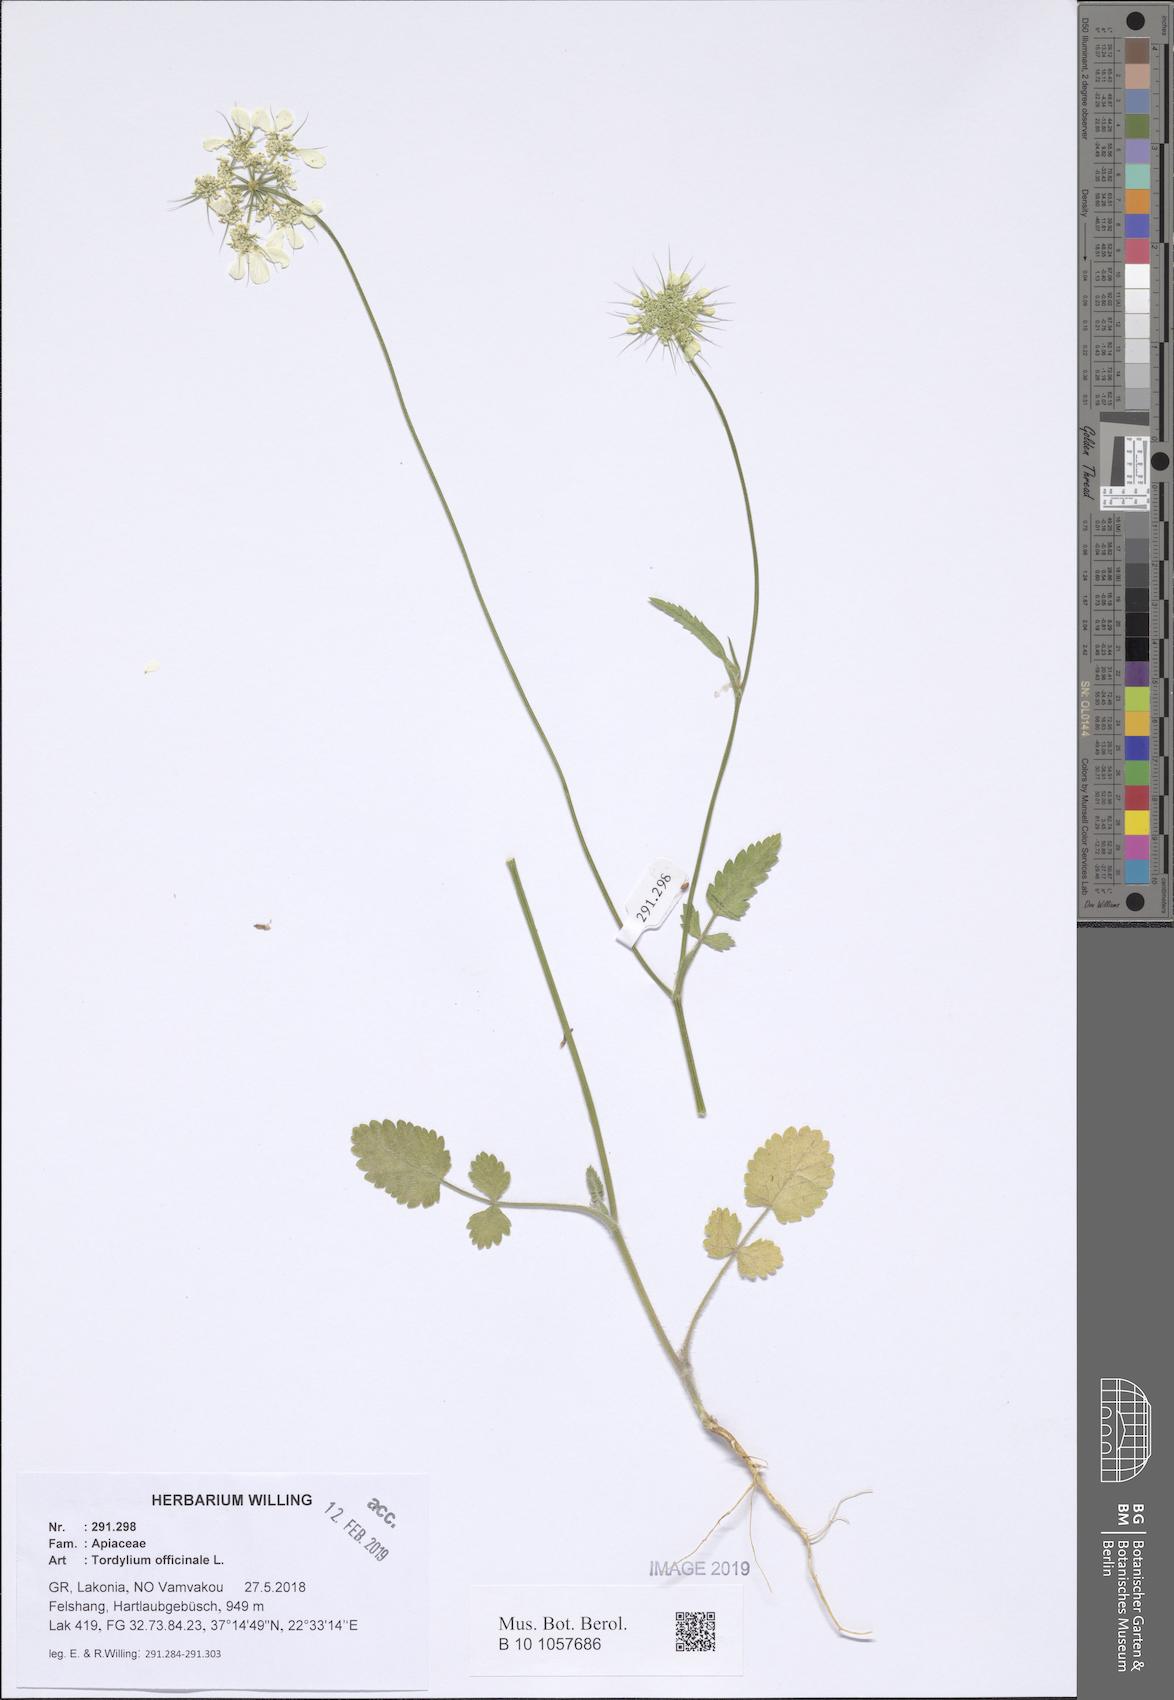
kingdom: Plantae
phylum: Tracheophyta
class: Magnoliopsida
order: Apiales
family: Apiaceae
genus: Tordylium
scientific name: Tordylium officinale
